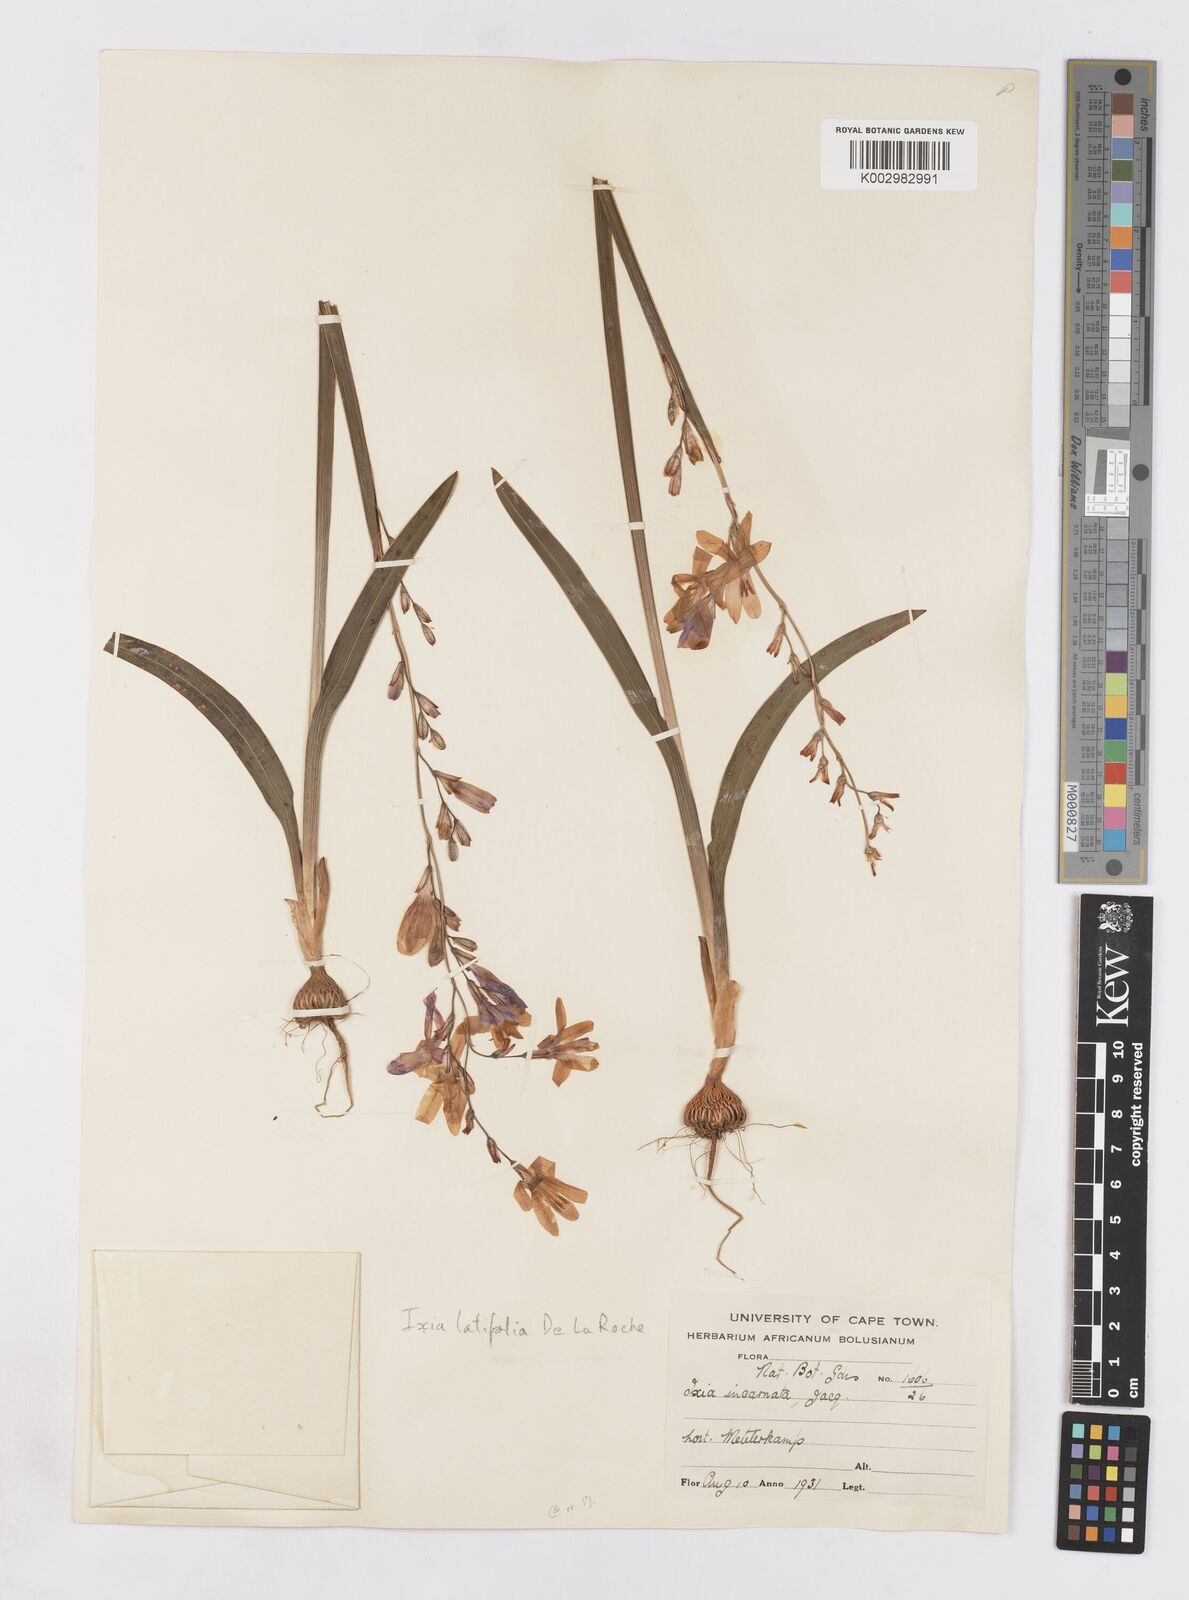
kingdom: Plantae
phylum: Tracheophyta
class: Liliopsida
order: Asparagales
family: Iridaceae
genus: Ixia
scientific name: Ixia latifolia
